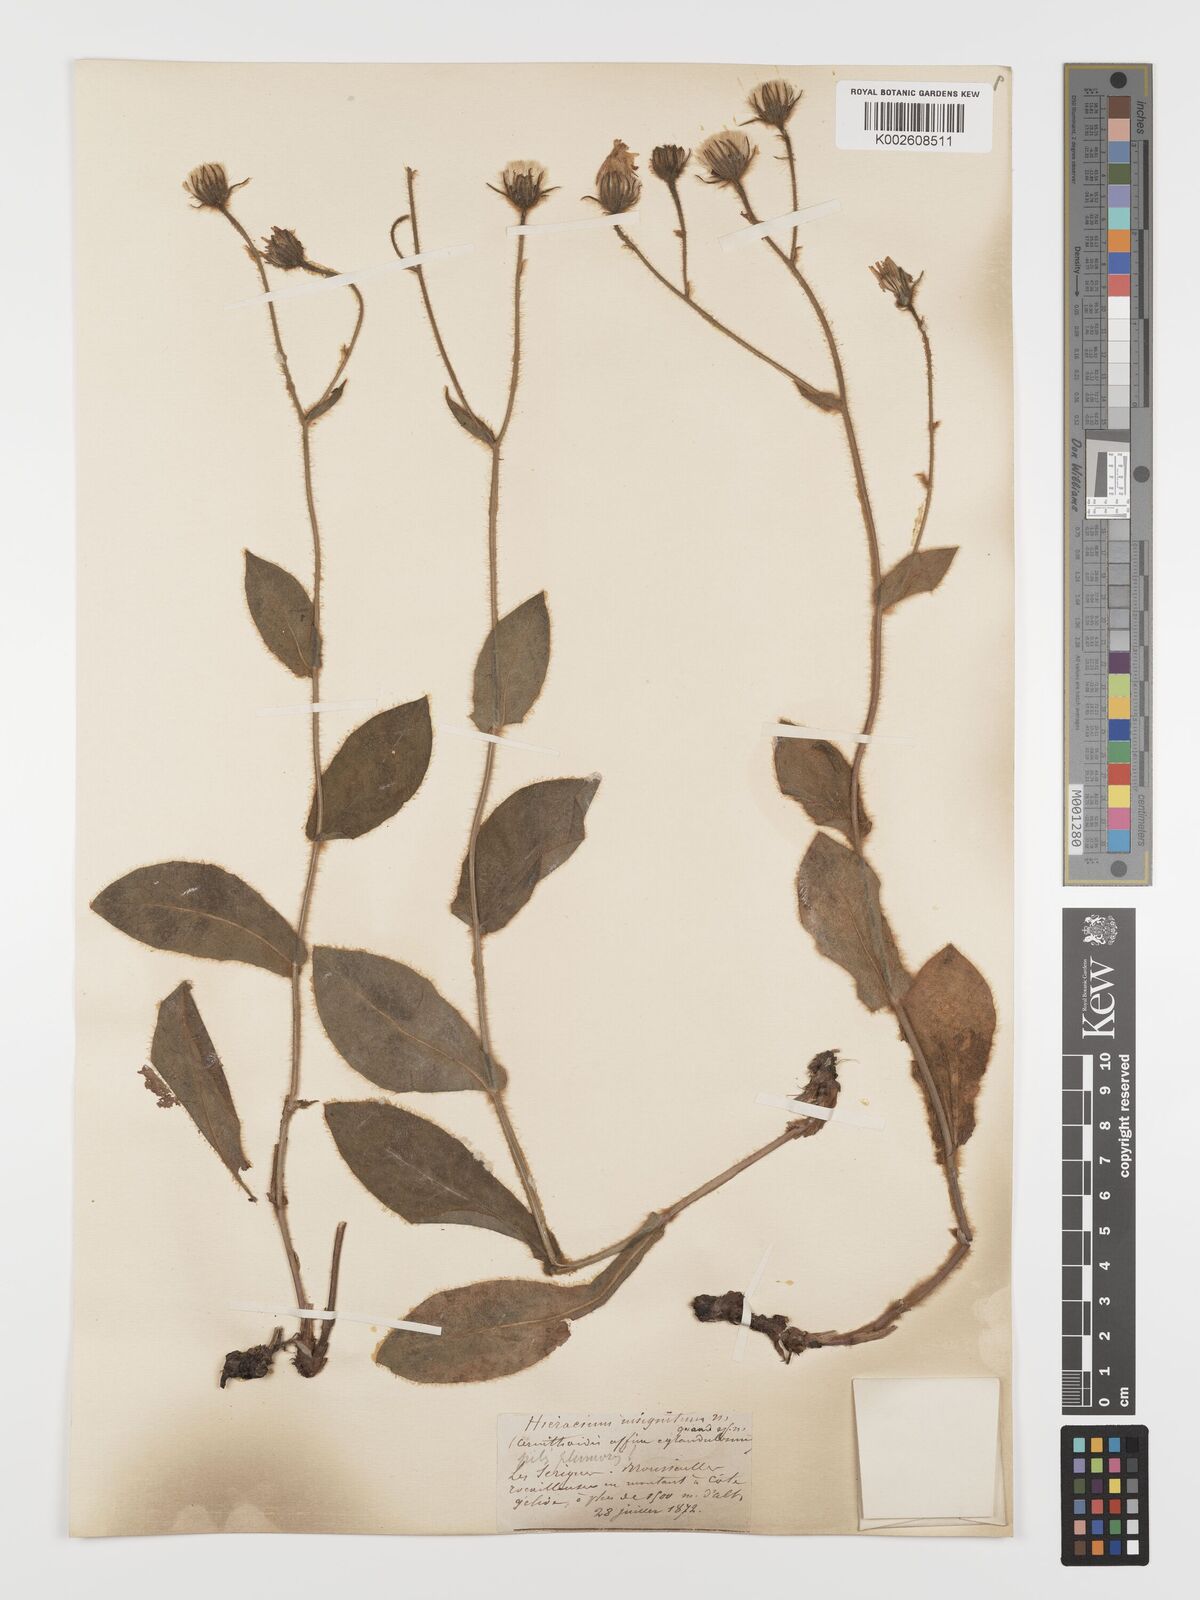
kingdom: Plantae
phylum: Tracheophyta
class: Magnoliopsida
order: Asterales
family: Asteraceae
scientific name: Asteraceae
